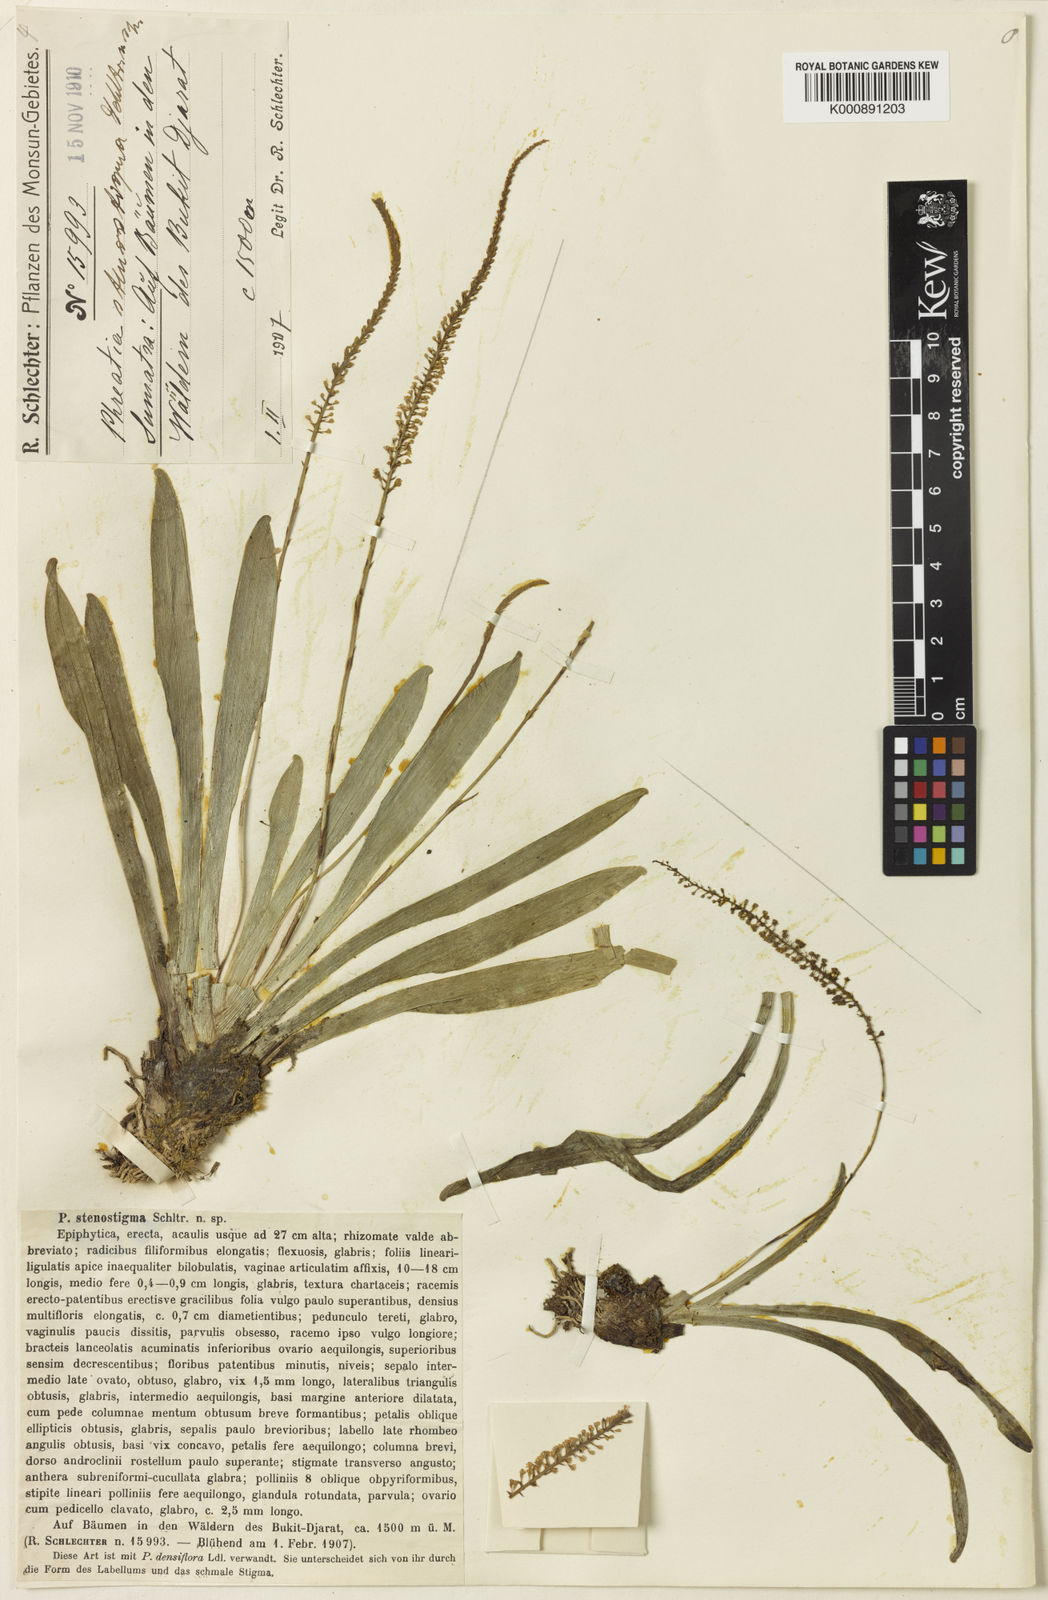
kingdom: Plantae
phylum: Tracheophyta
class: Liliopsida
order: Asparagales
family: Orchidaceae
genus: Phreatia
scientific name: Phreatia densiflora
